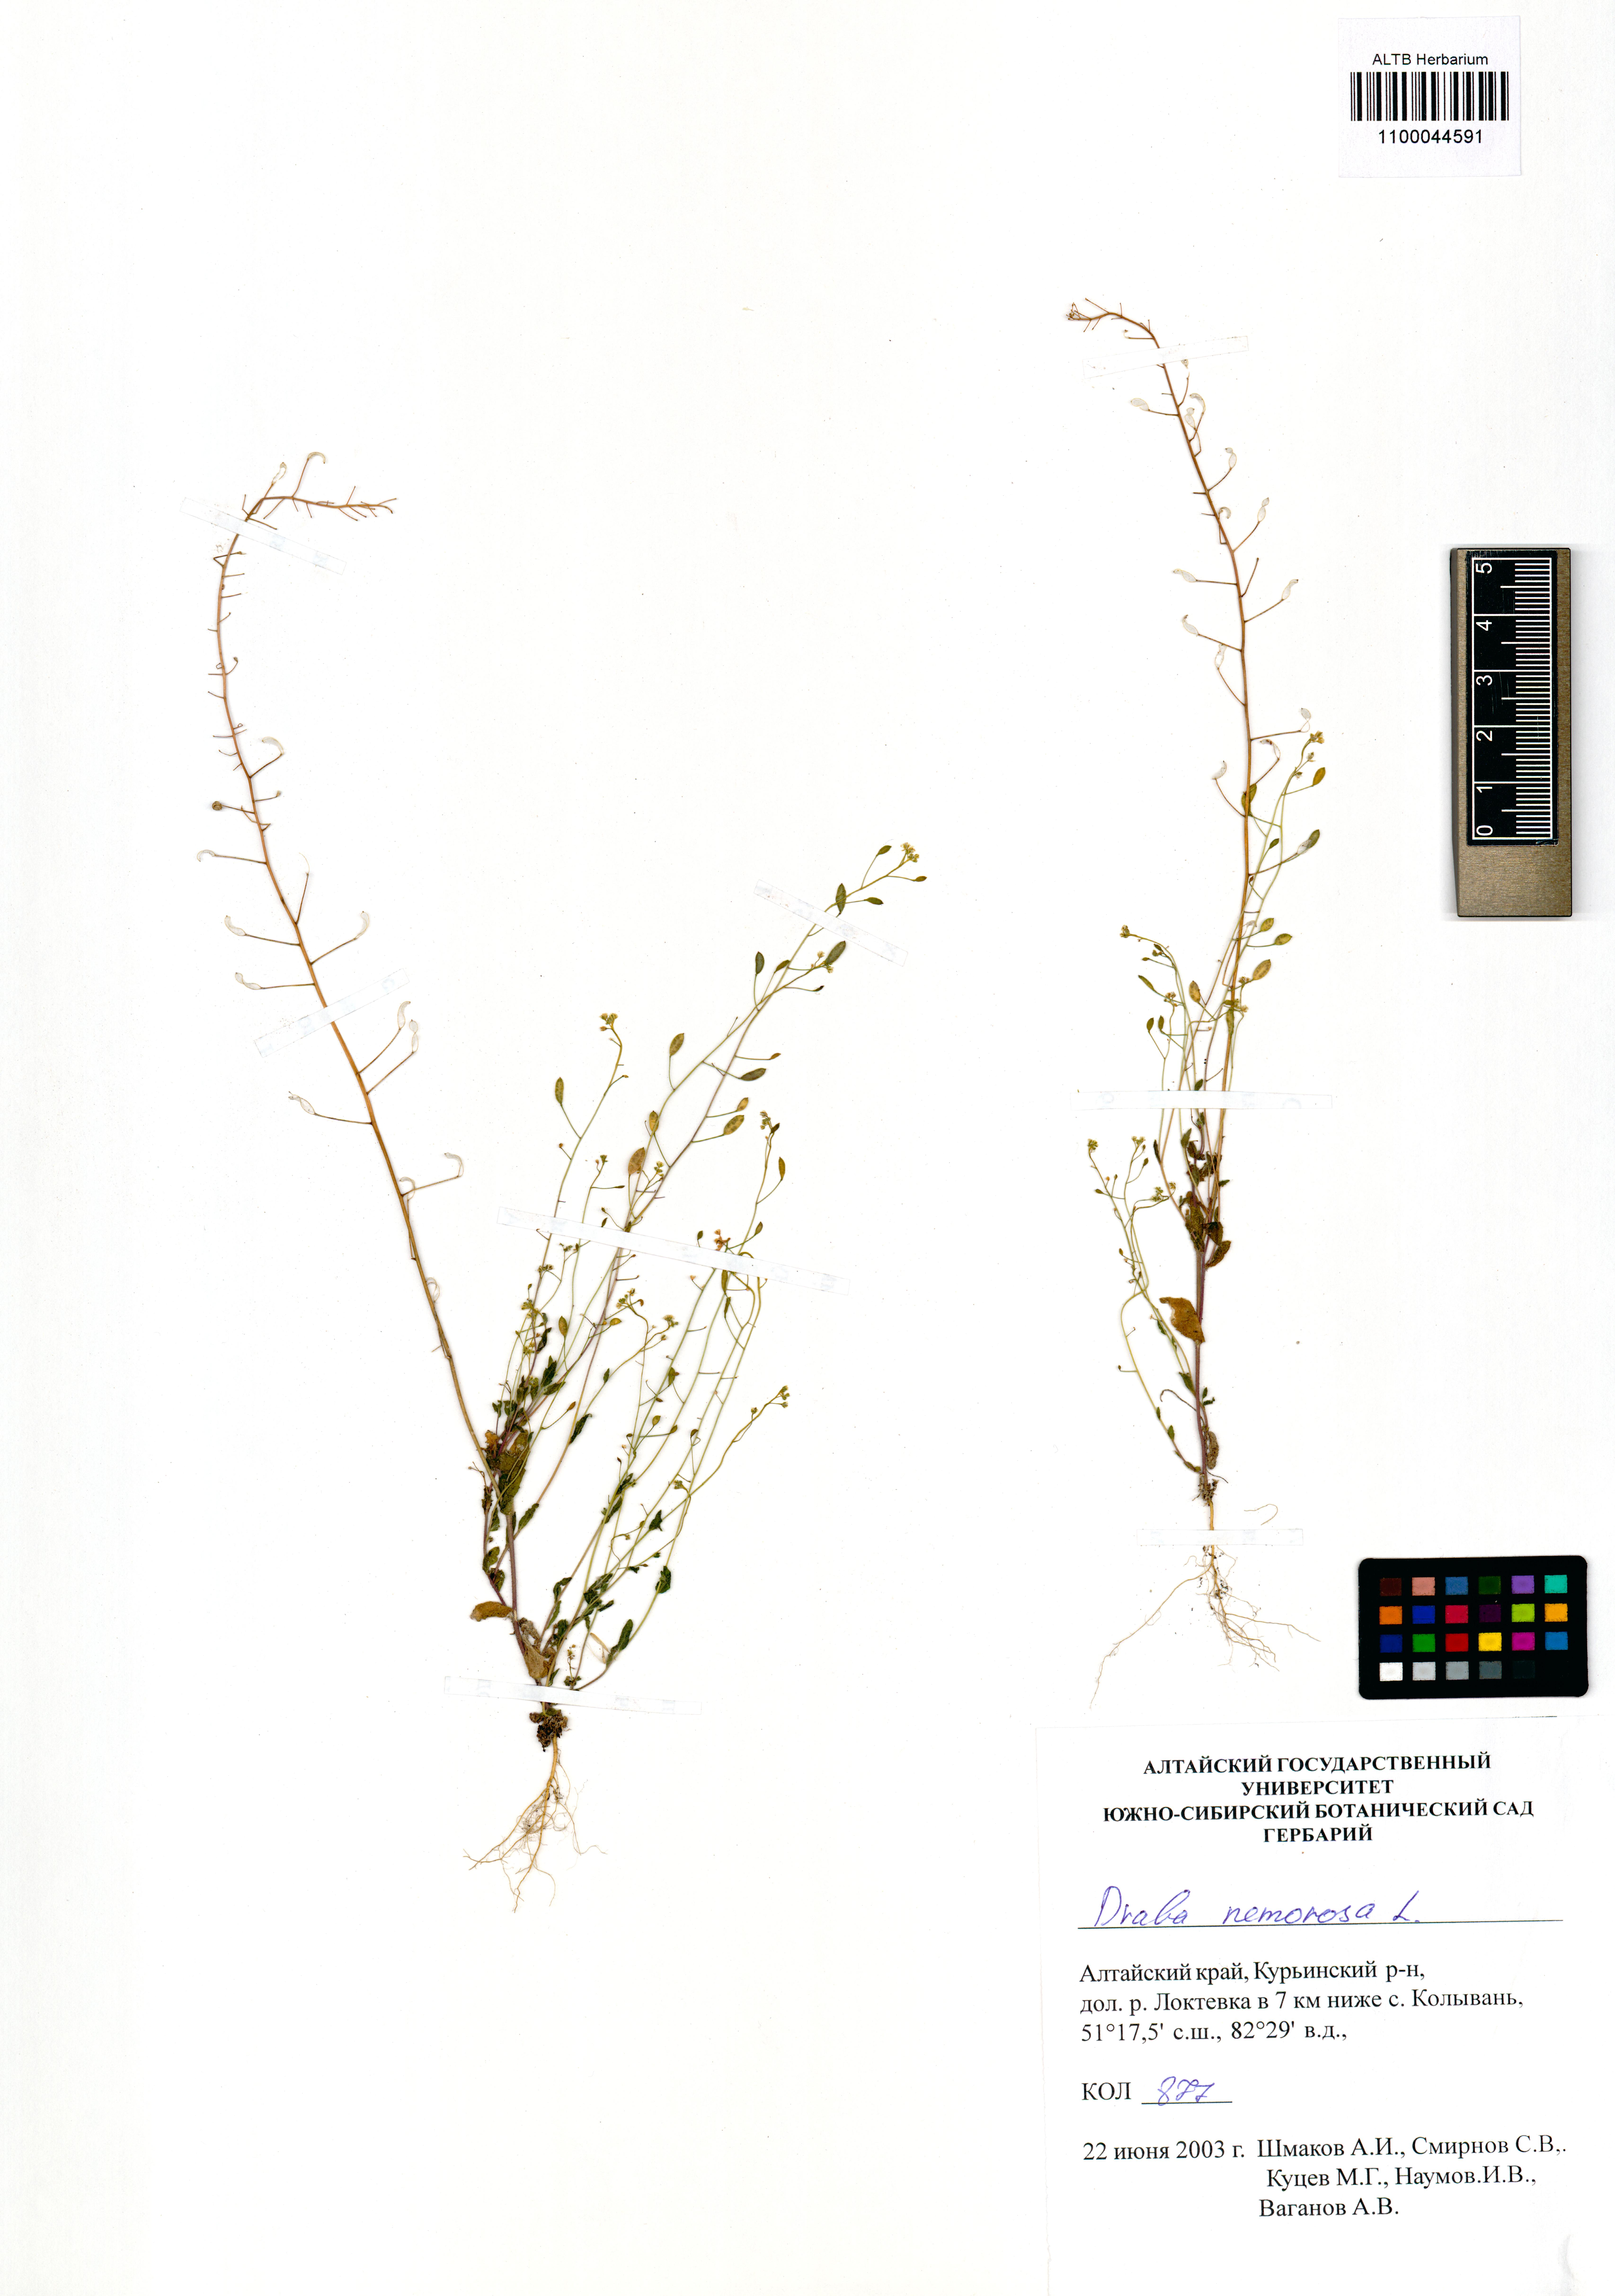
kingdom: Plantae
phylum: Tracheophyta
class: Magnoliopsida
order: Brassicales
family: Brassicaceae
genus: Draba
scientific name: Draba nemorosa
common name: Wood whitlow-grass
